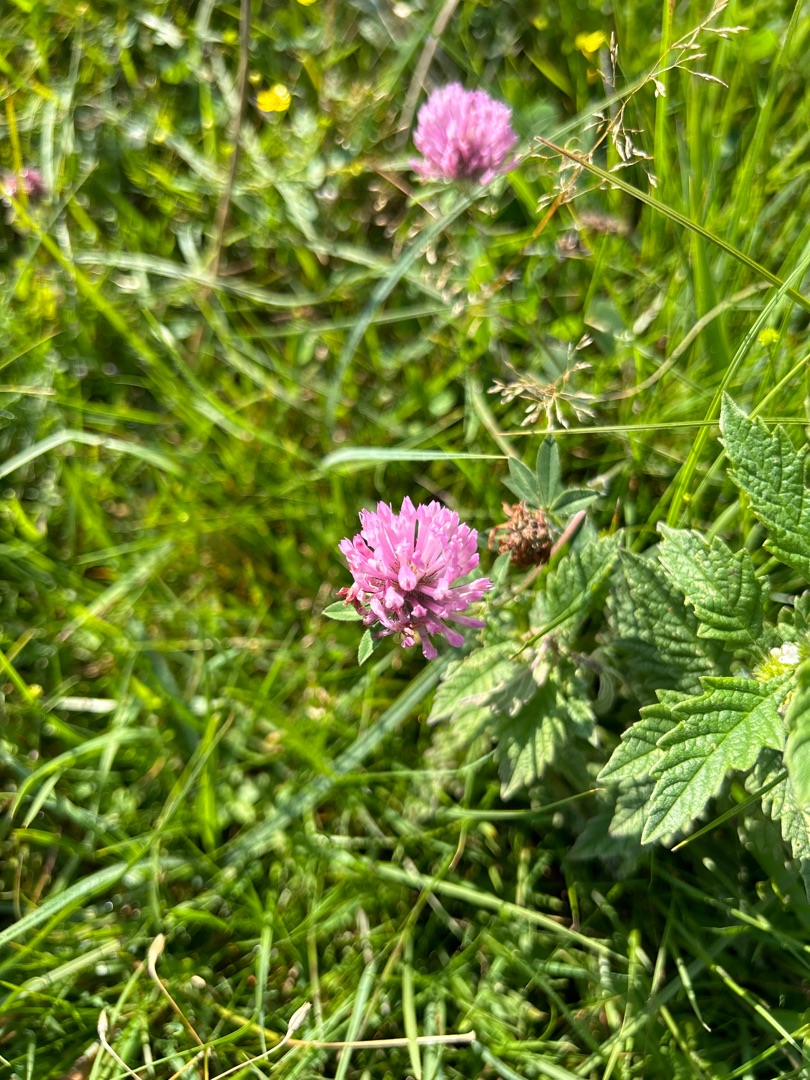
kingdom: Plantae
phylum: Tracheophyta
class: Magnoliopsida
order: Fabales
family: Fabaceae
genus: Trifolium
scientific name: Trifolium pratense
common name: Rød-kløver
